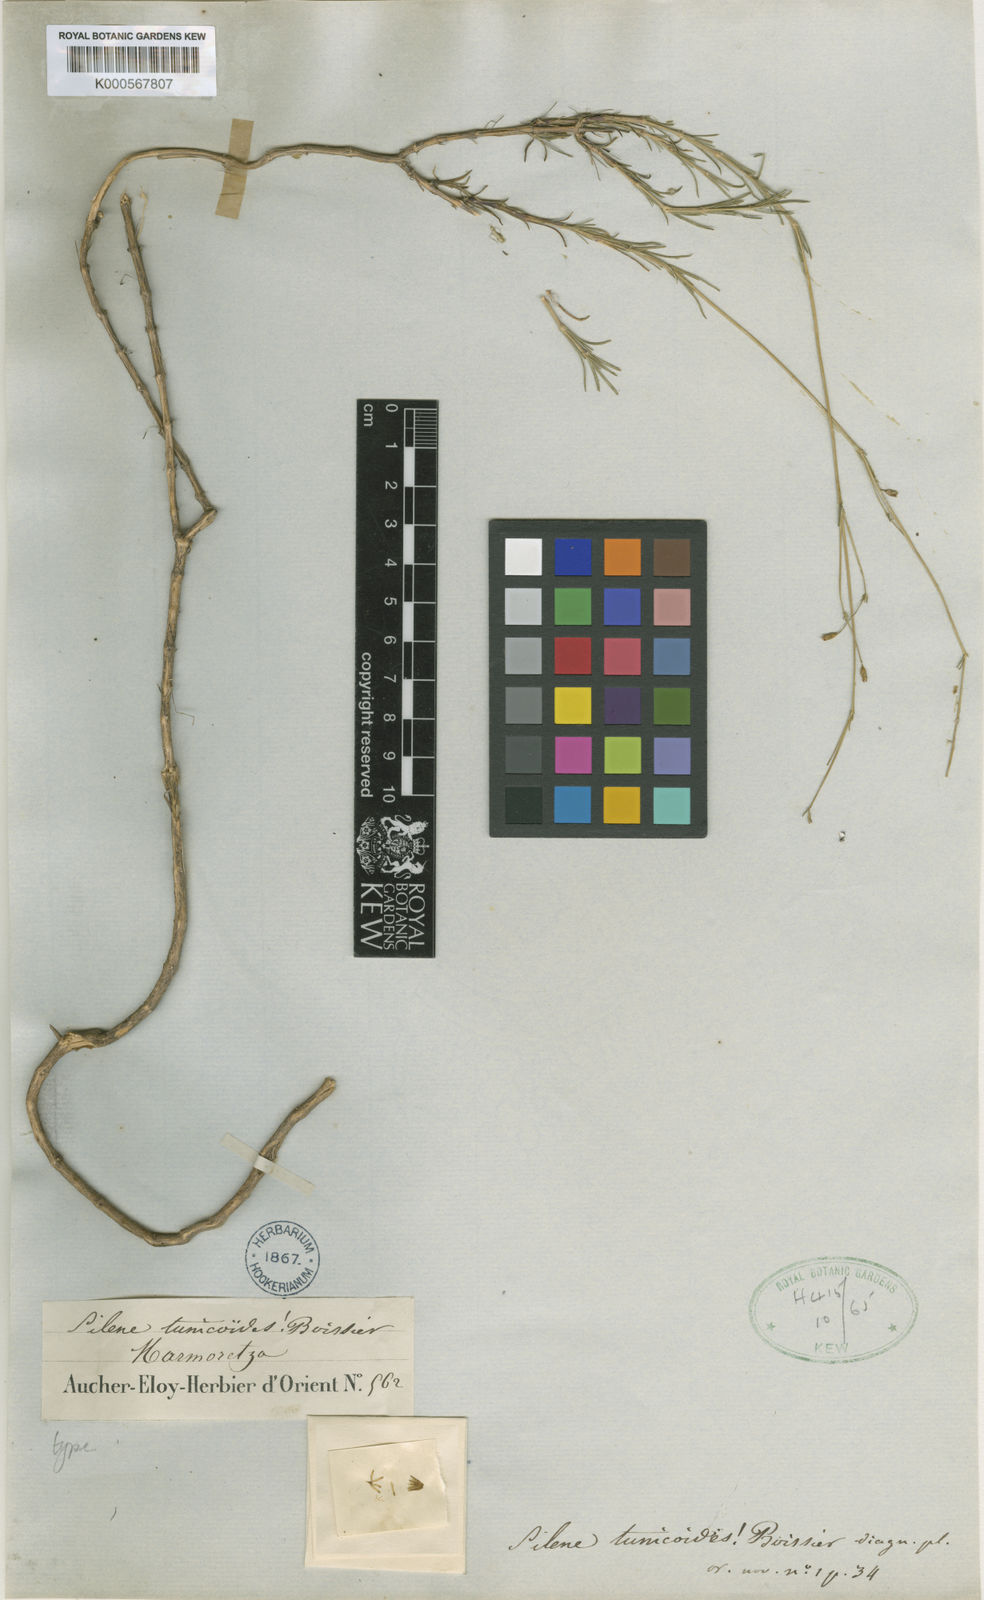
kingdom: Plantae
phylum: Tracheophyta
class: Magnoliopsida
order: Caryophyllales
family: Caryophyllaceae
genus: Silene
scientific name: Silene tunicoides
